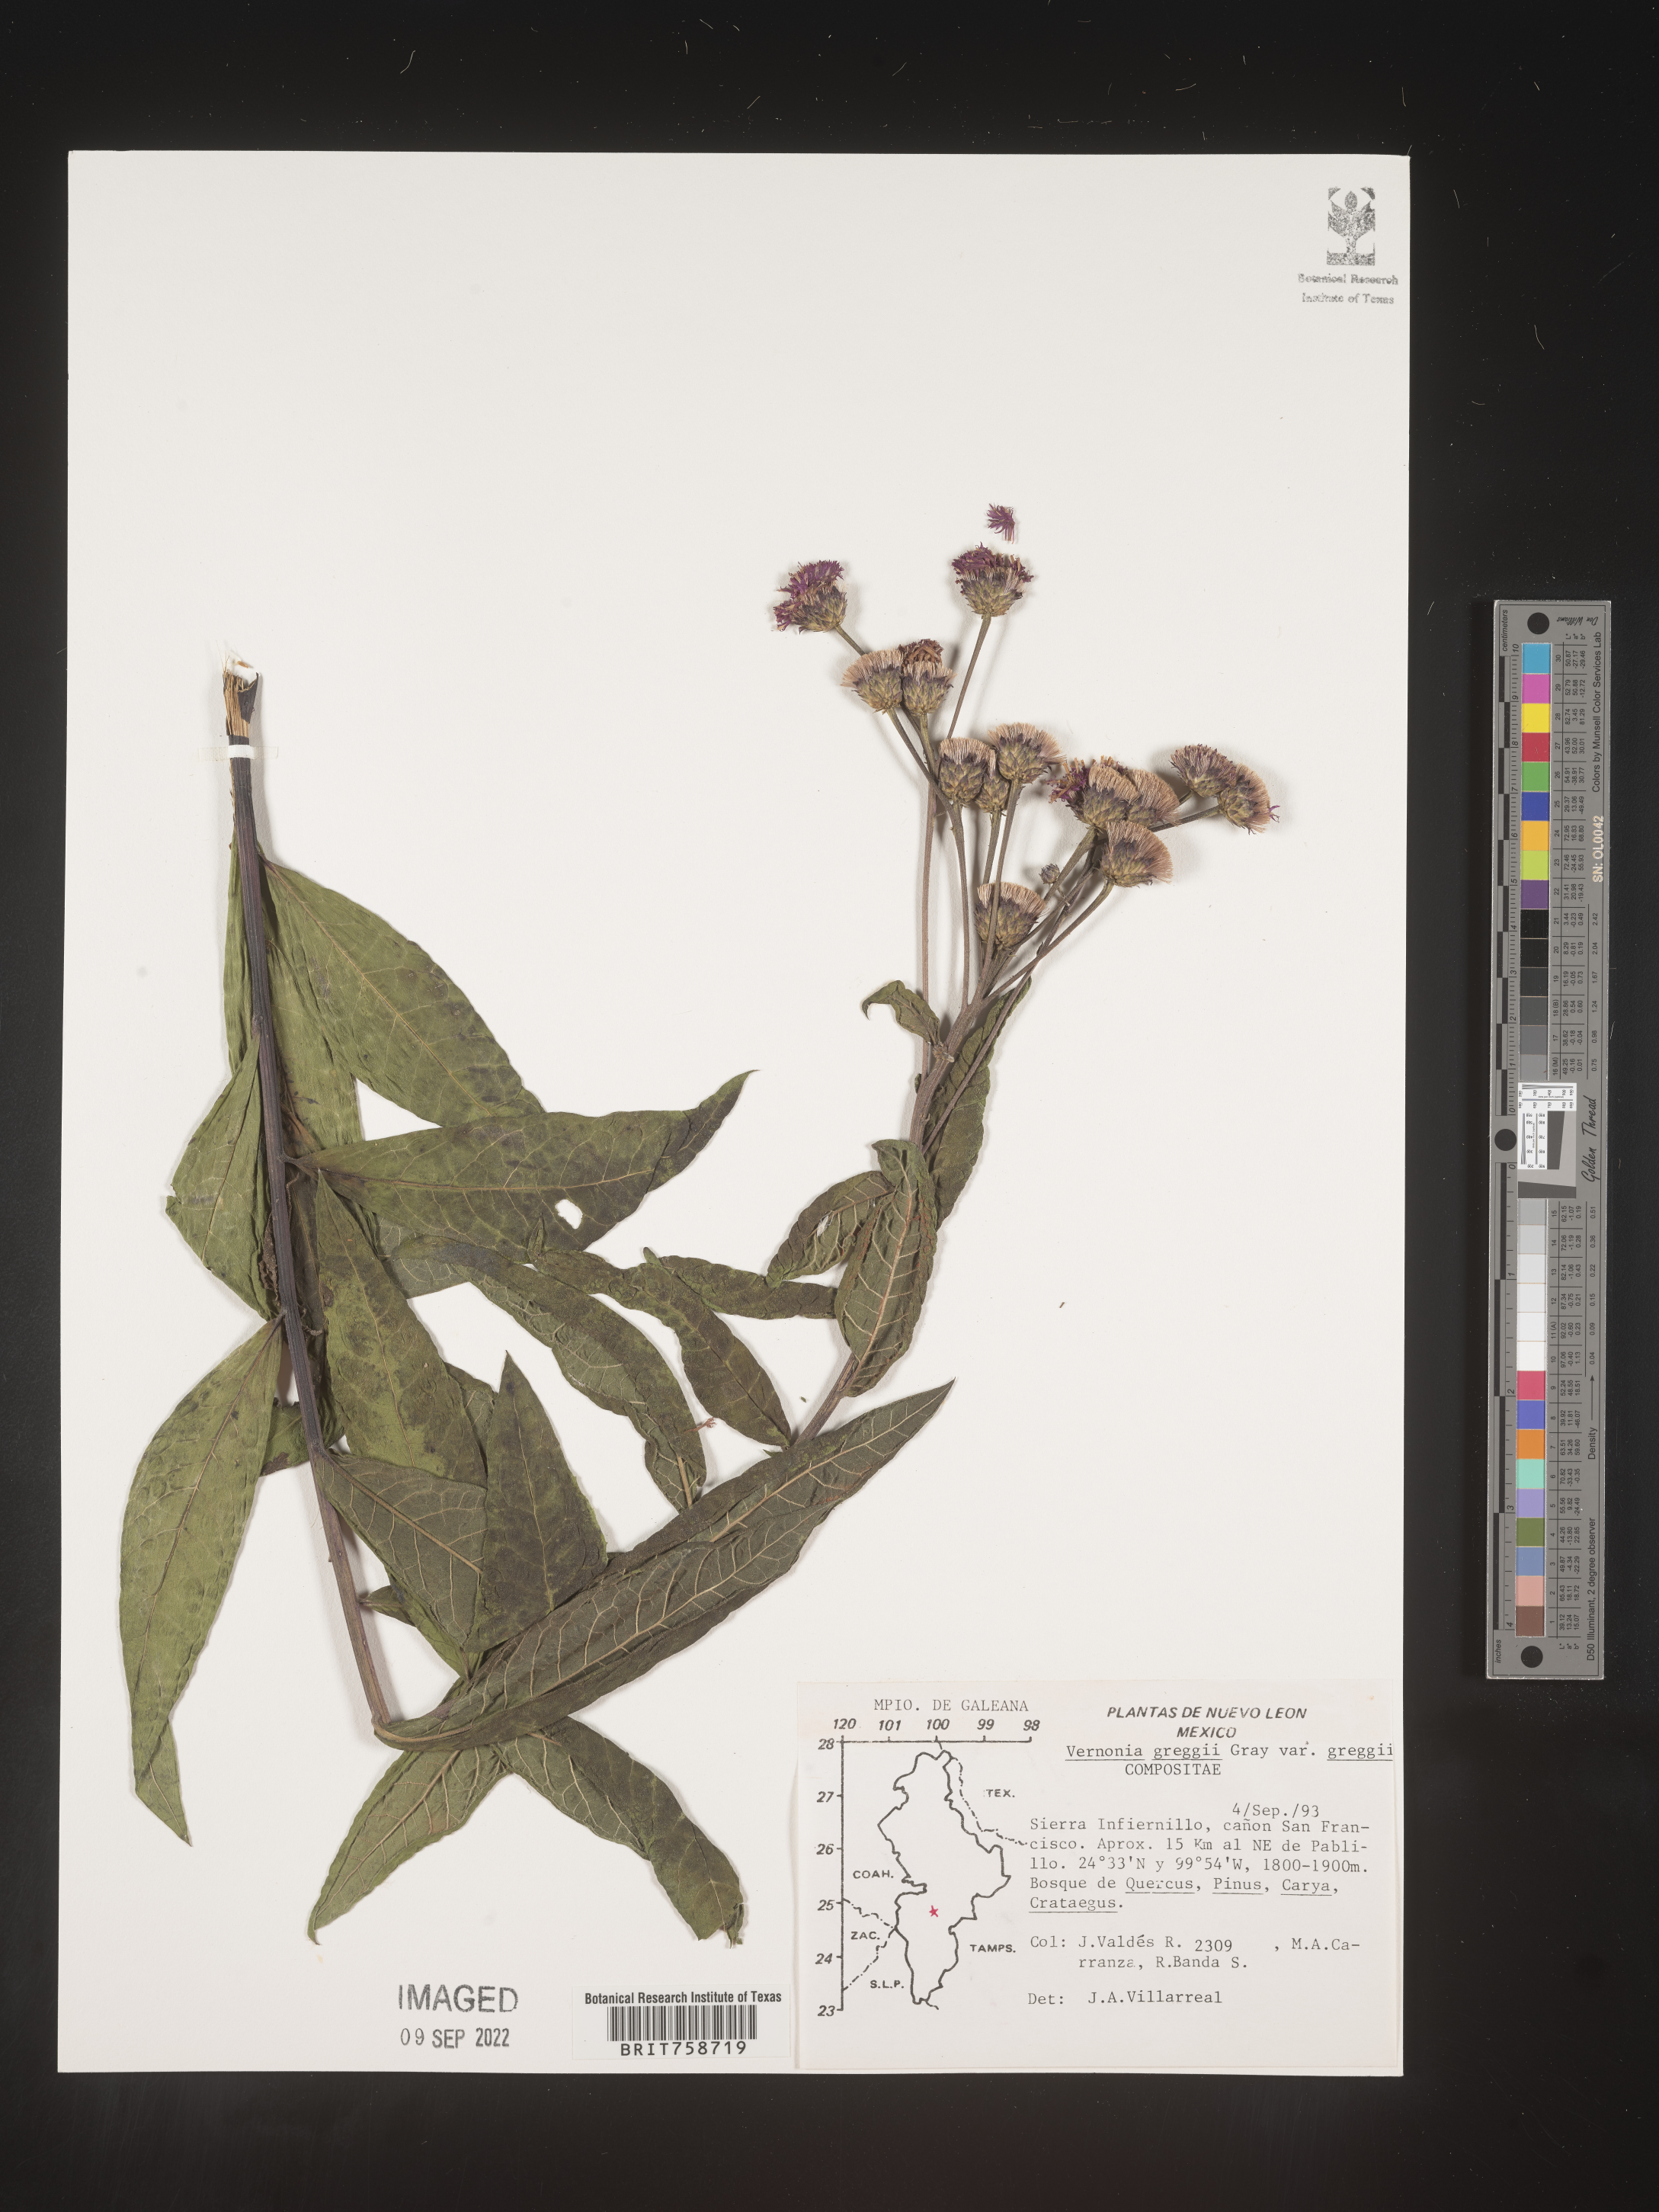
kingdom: Plantae
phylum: Tracheophyta
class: Magnoliopsida
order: Asterales
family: Asteraceae
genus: Vernonia
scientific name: Vernonia
